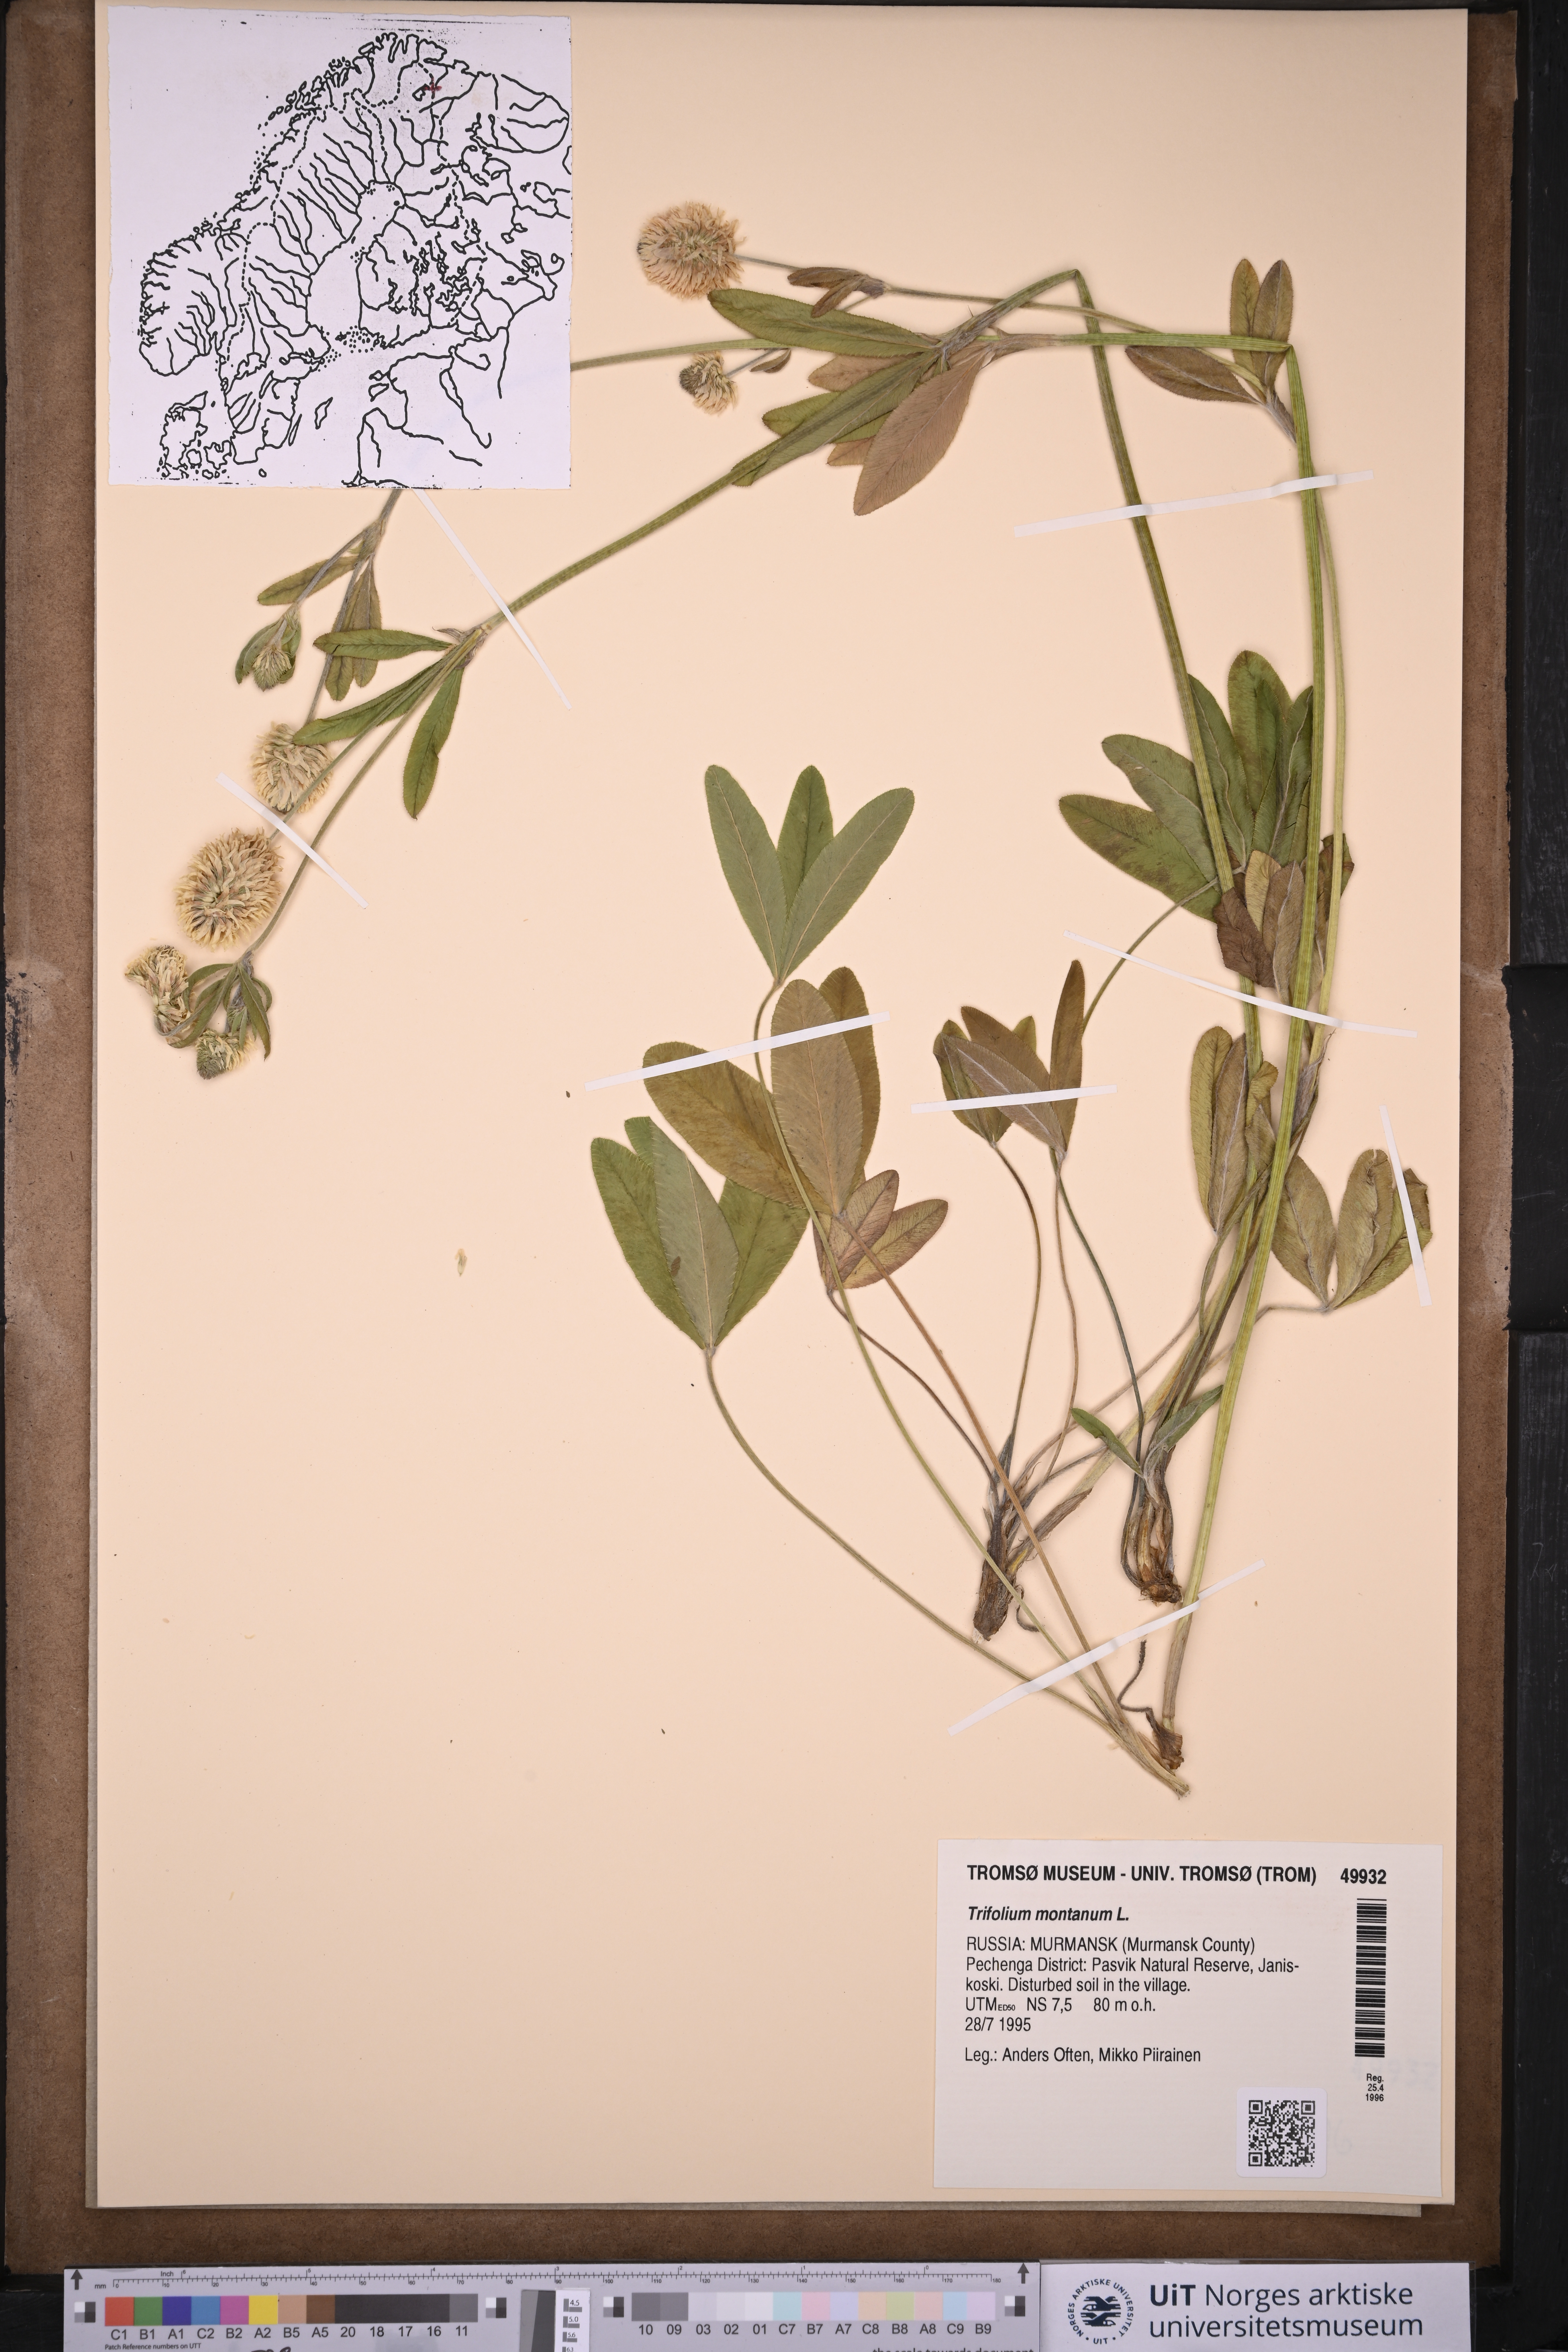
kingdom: Plantae
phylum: Tracheophyta
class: Magnoliopsida
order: Fabales
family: Fabaceae
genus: Trifolium
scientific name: Trifolium montanum
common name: Mountain clover
